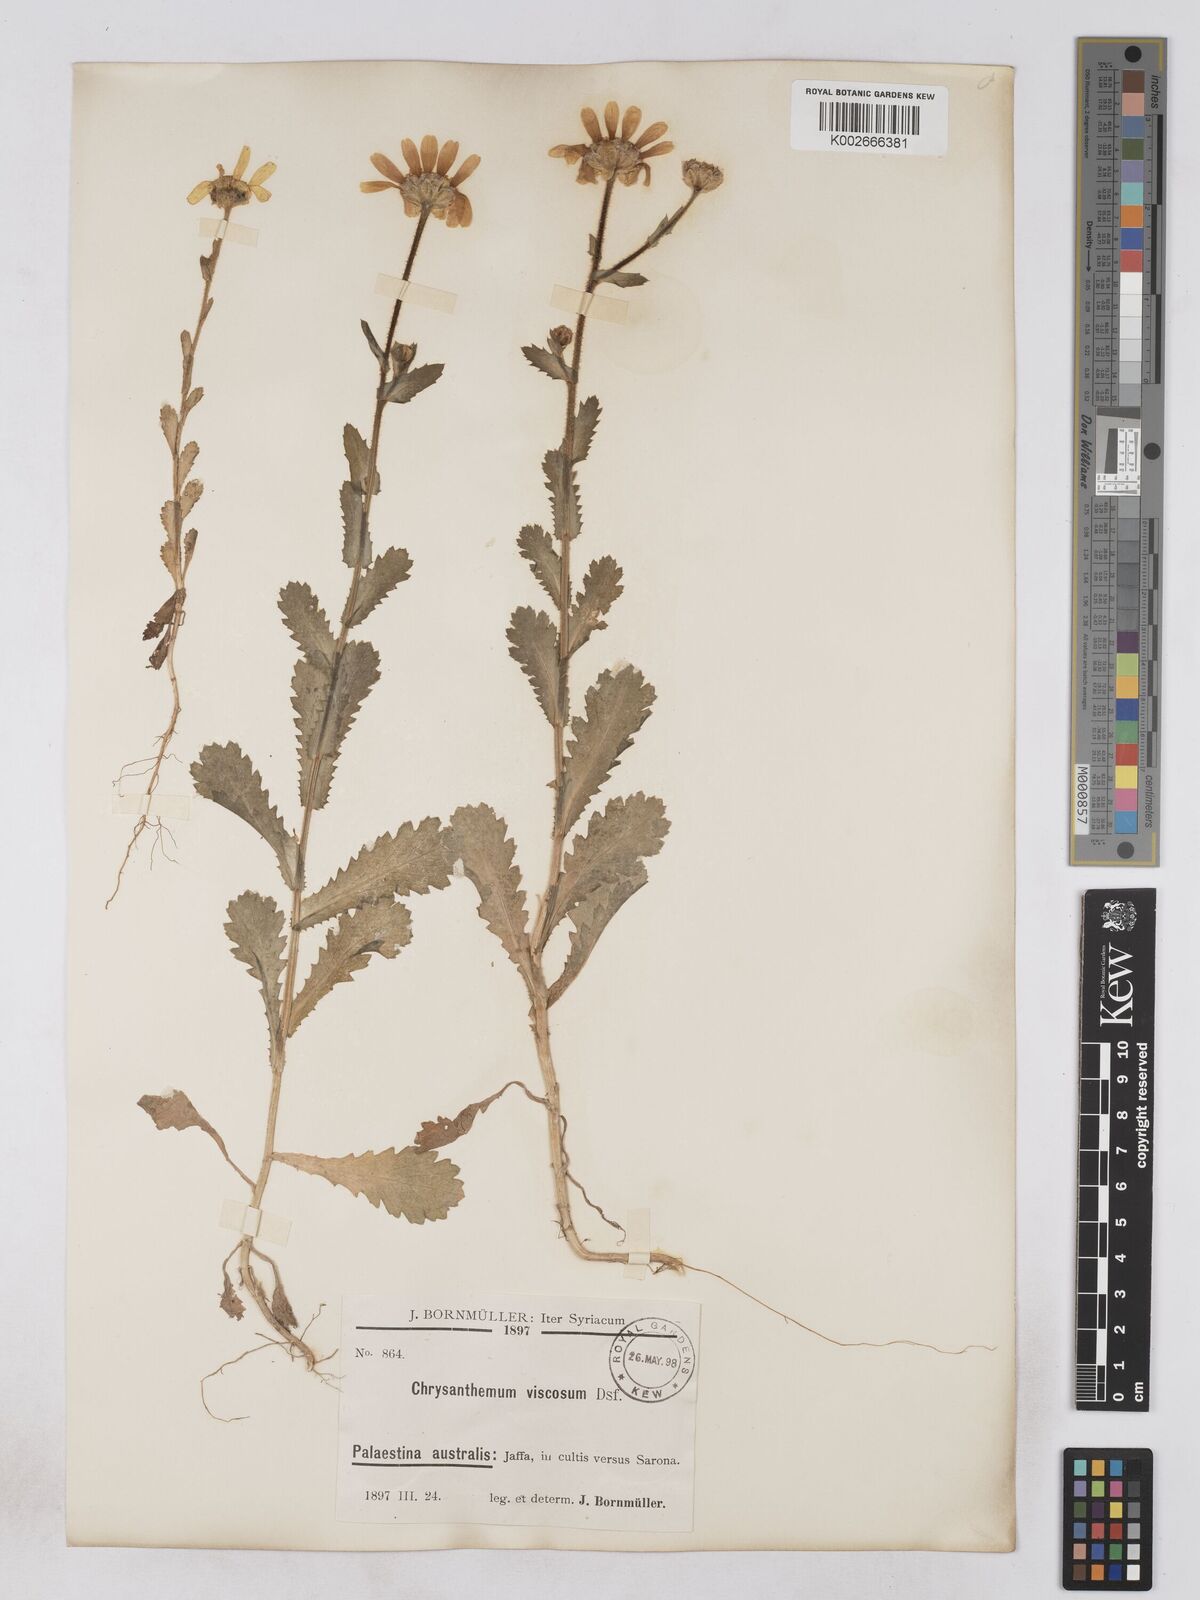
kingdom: Plantae
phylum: Tracheophyta
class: Magnoliopsida
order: Asterales
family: Asteraceae
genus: Heteranthemis
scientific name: Heteranthemis
